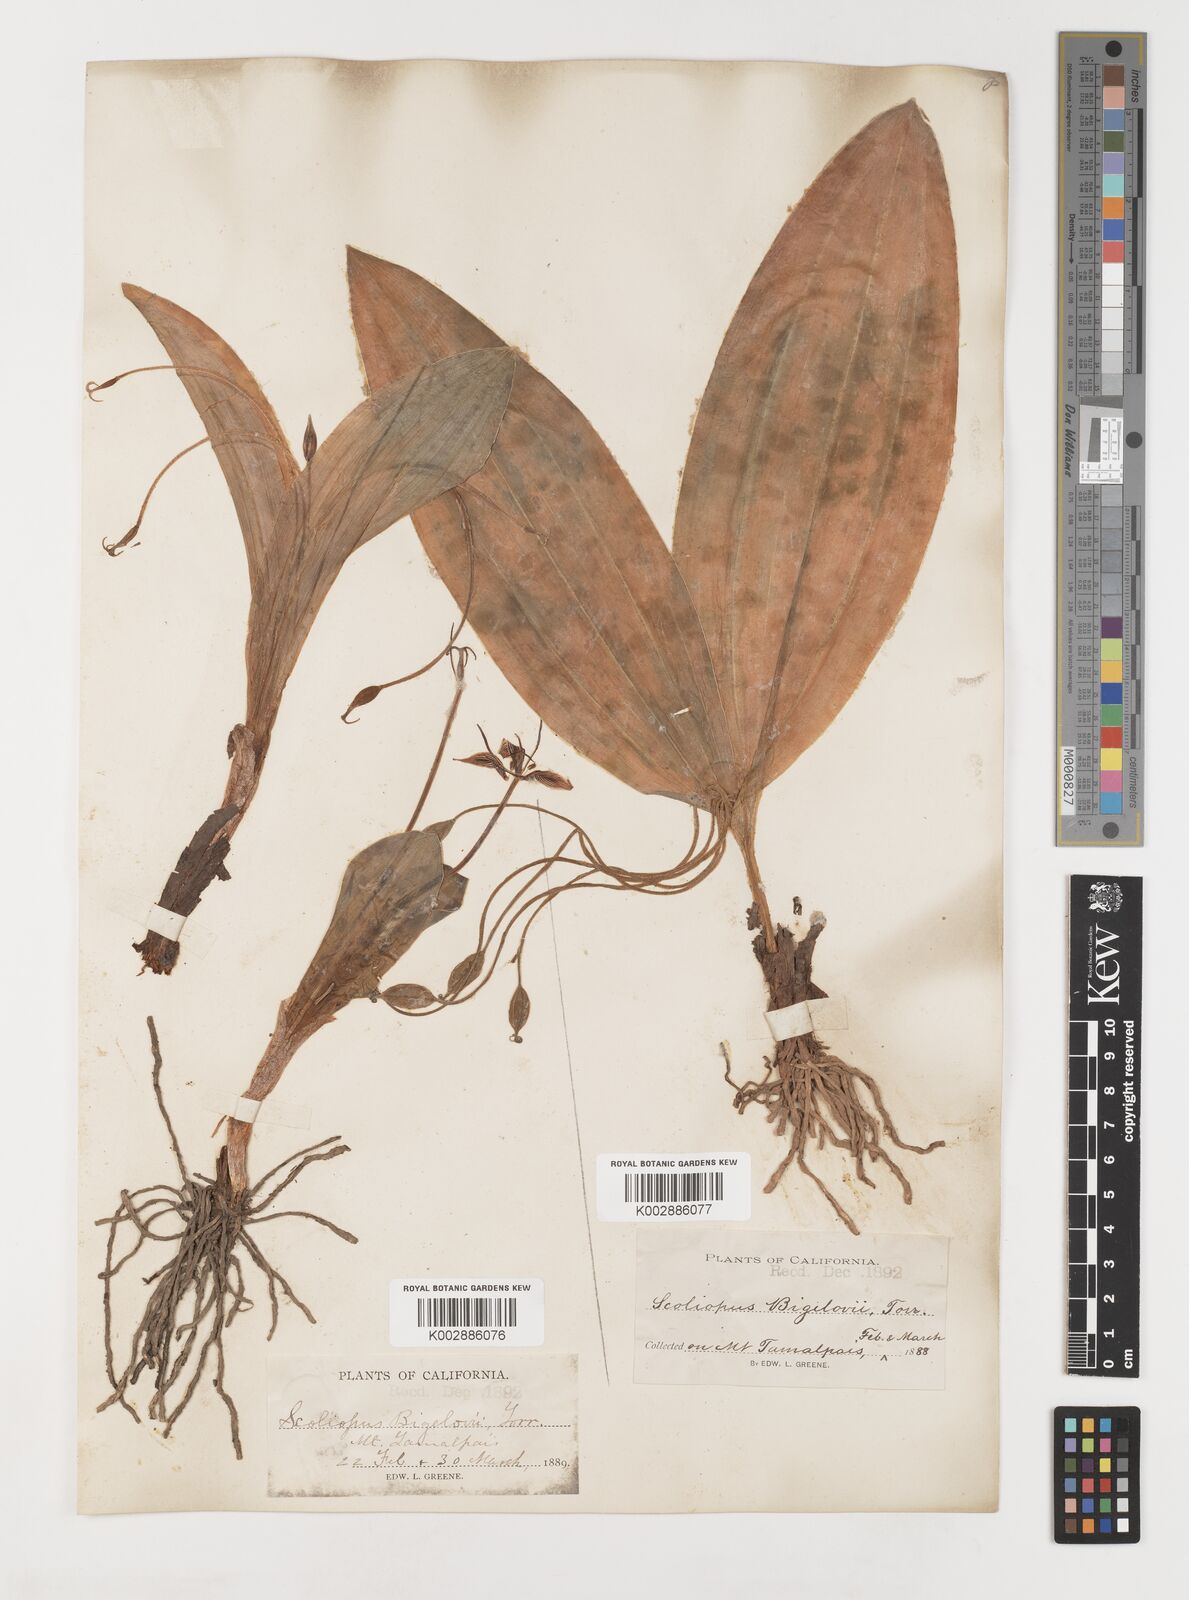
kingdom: Plantae
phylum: Tracheophyta
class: Liliopsida
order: Liliales
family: Liliaceae
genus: Scoliopus
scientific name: Scoliopus bigelovii
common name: Foetid adder's-tongue
